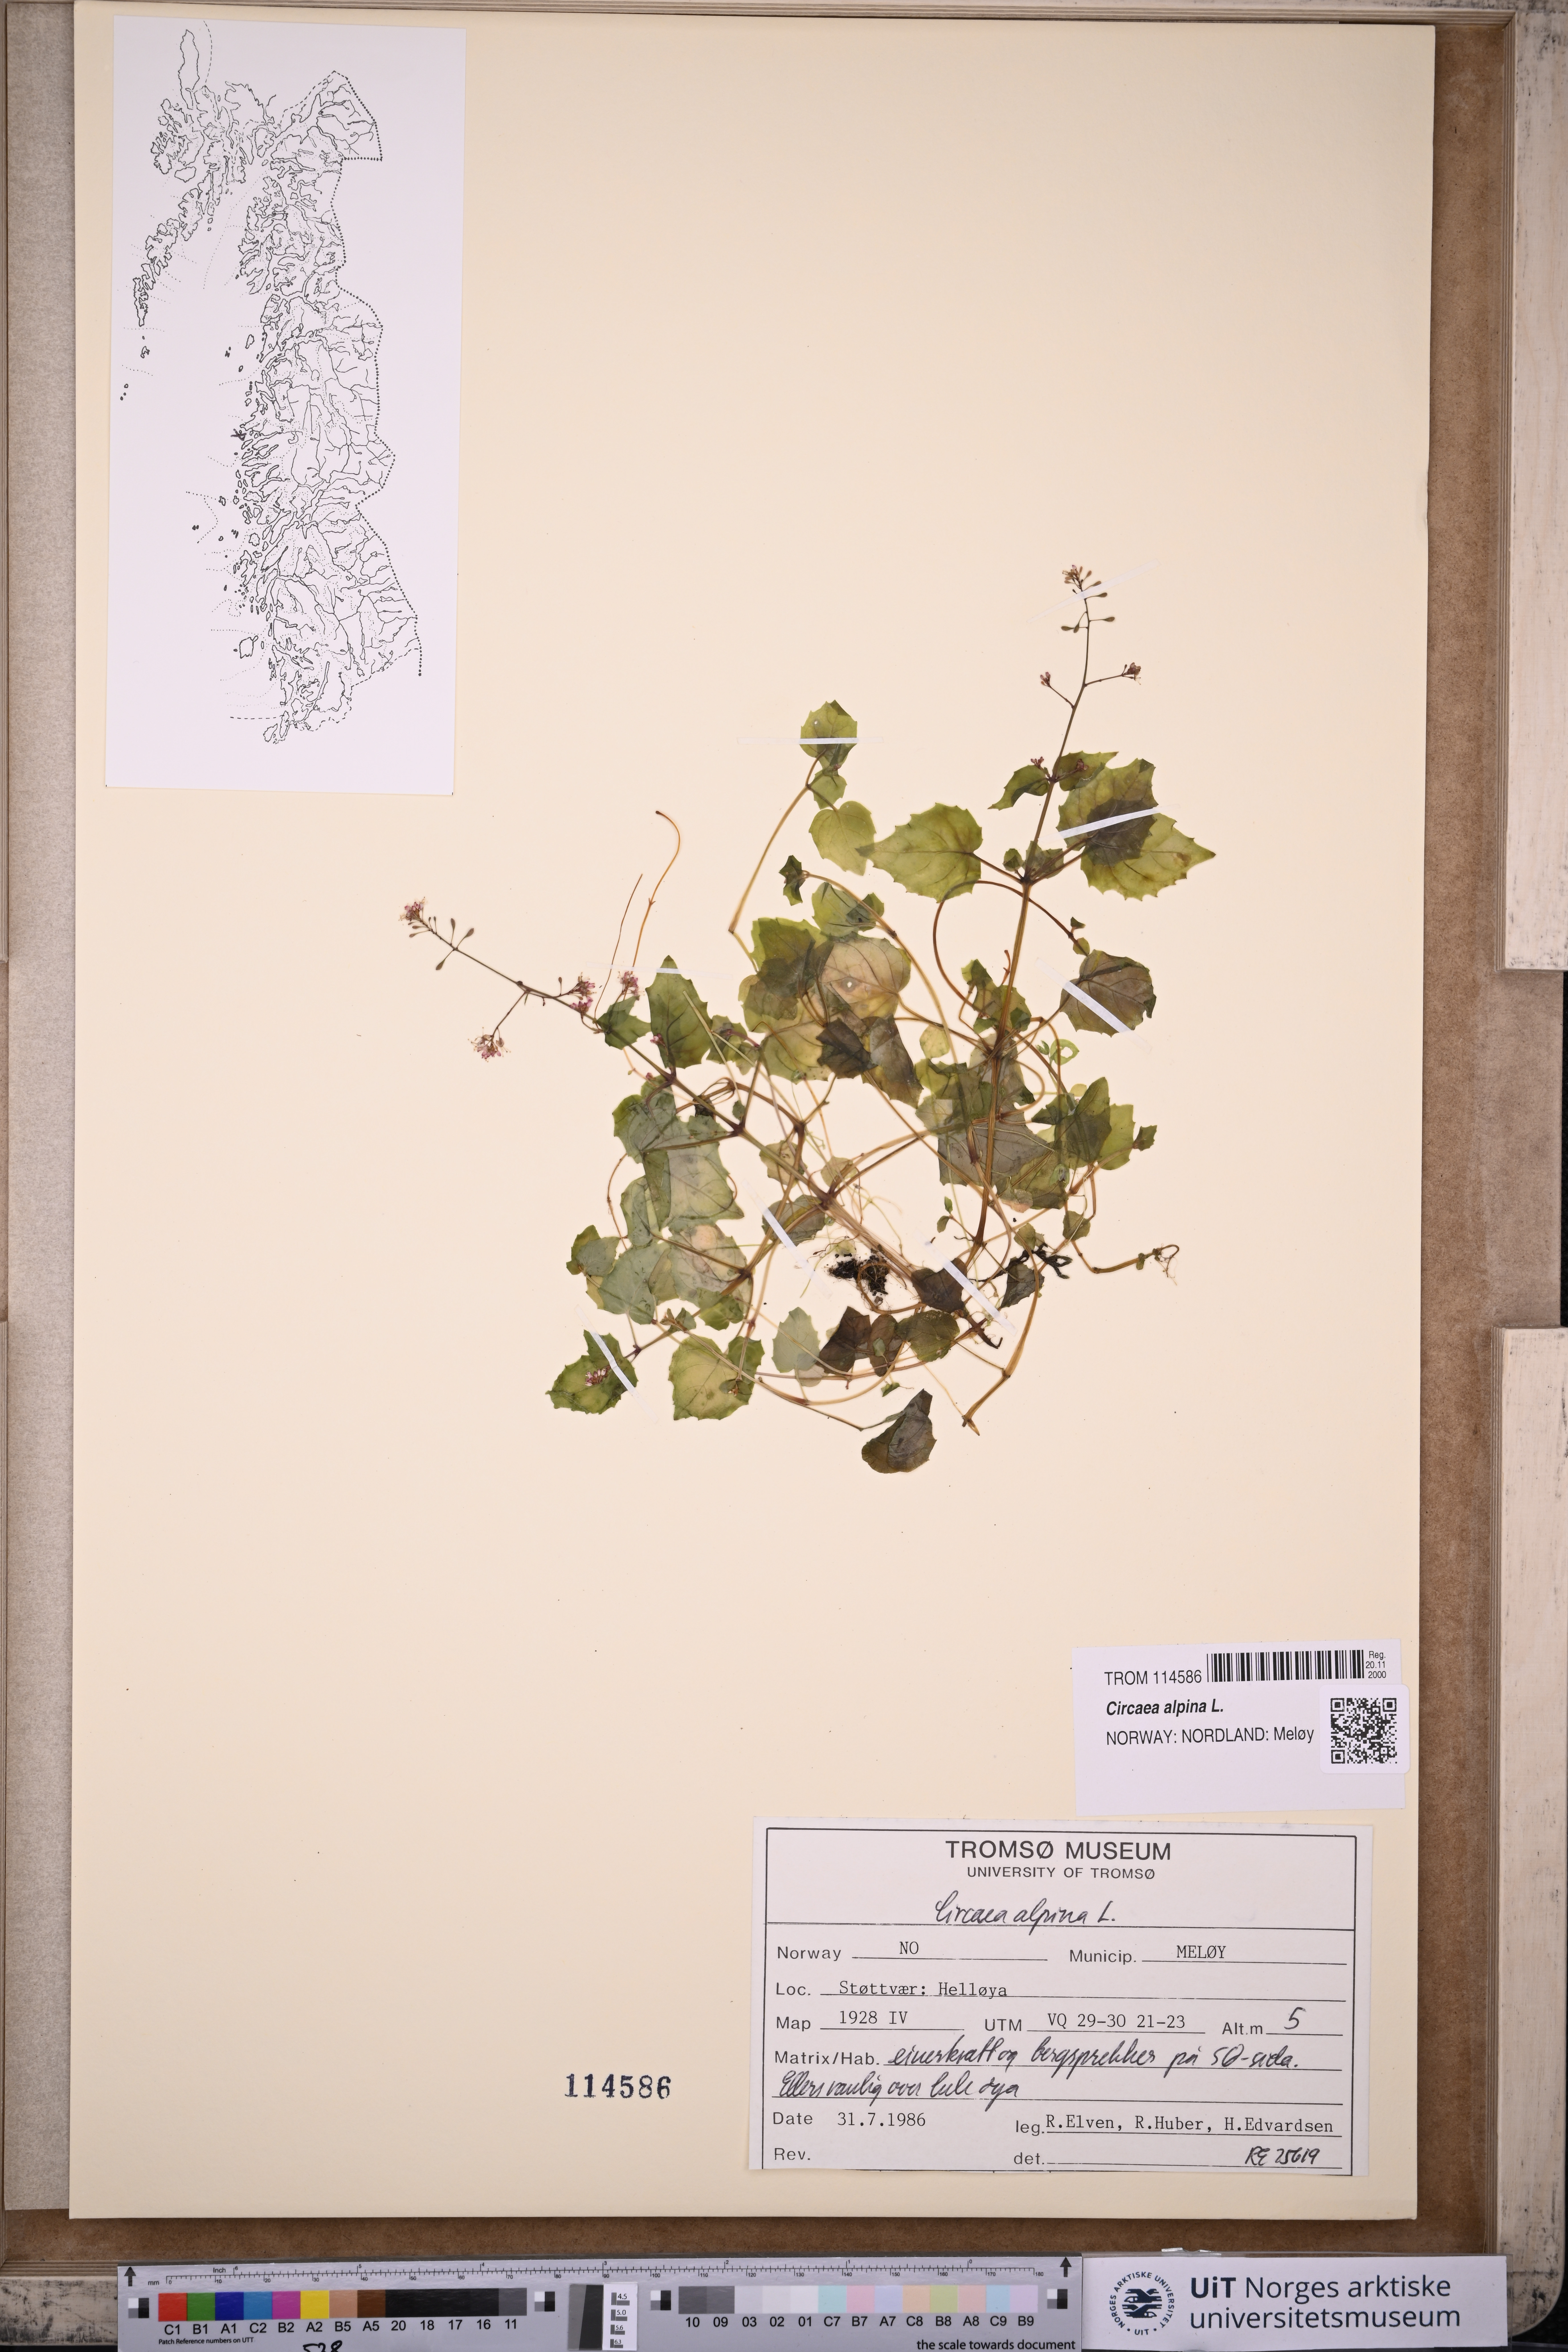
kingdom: Plantae
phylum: Tracheophyta
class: Magnoliopsida
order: Myrtales
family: Onagraceae
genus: Circaea
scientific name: Circaea alpina
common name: Alpine enchanter's-nightshade
